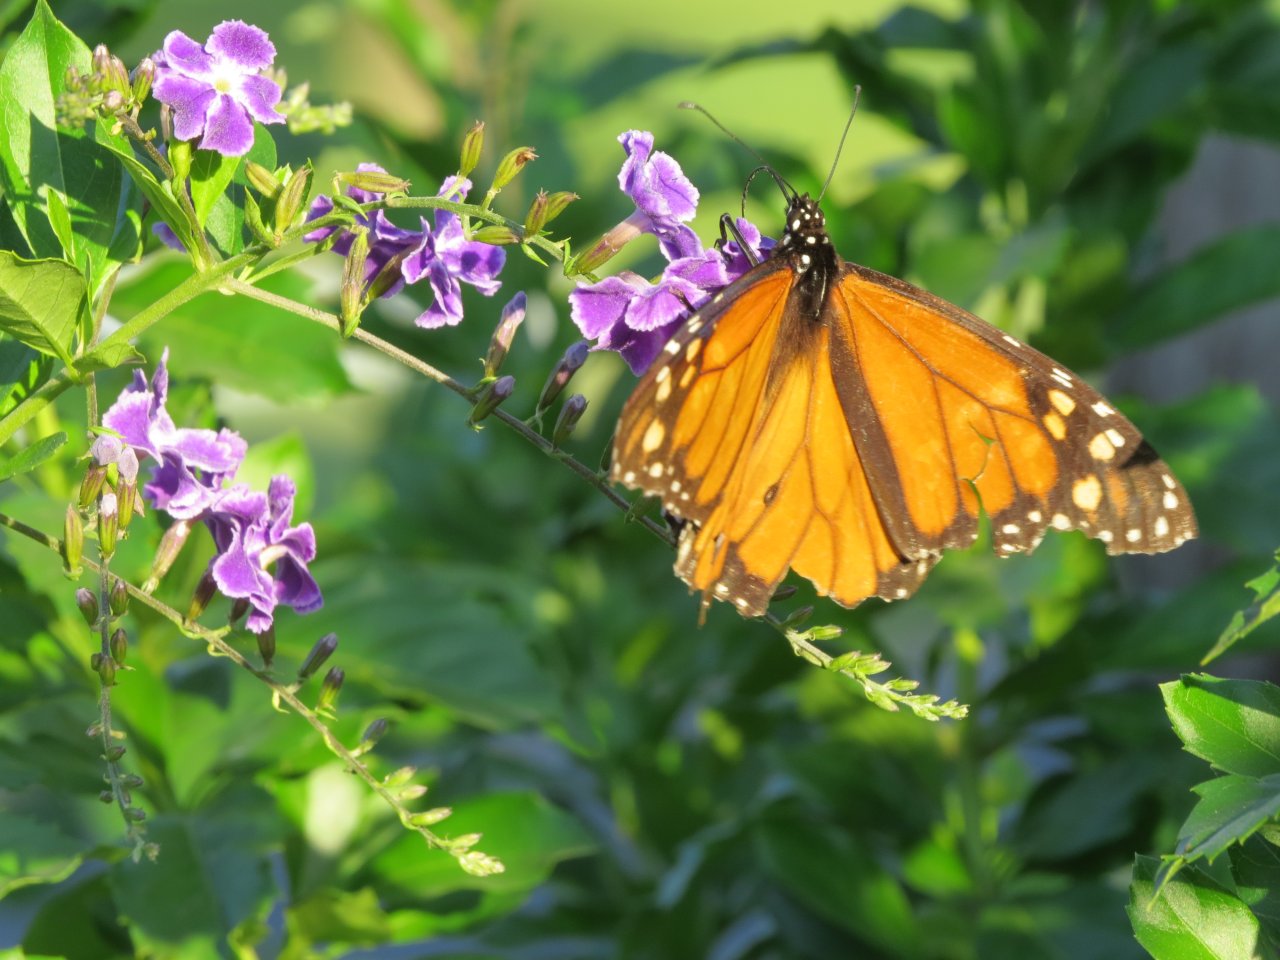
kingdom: Animalia
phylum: Arthropoda
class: Insecta
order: Lepidoptera
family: Nymphalidae
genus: Danaus
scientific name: Danaus plexippus
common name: Monarch
